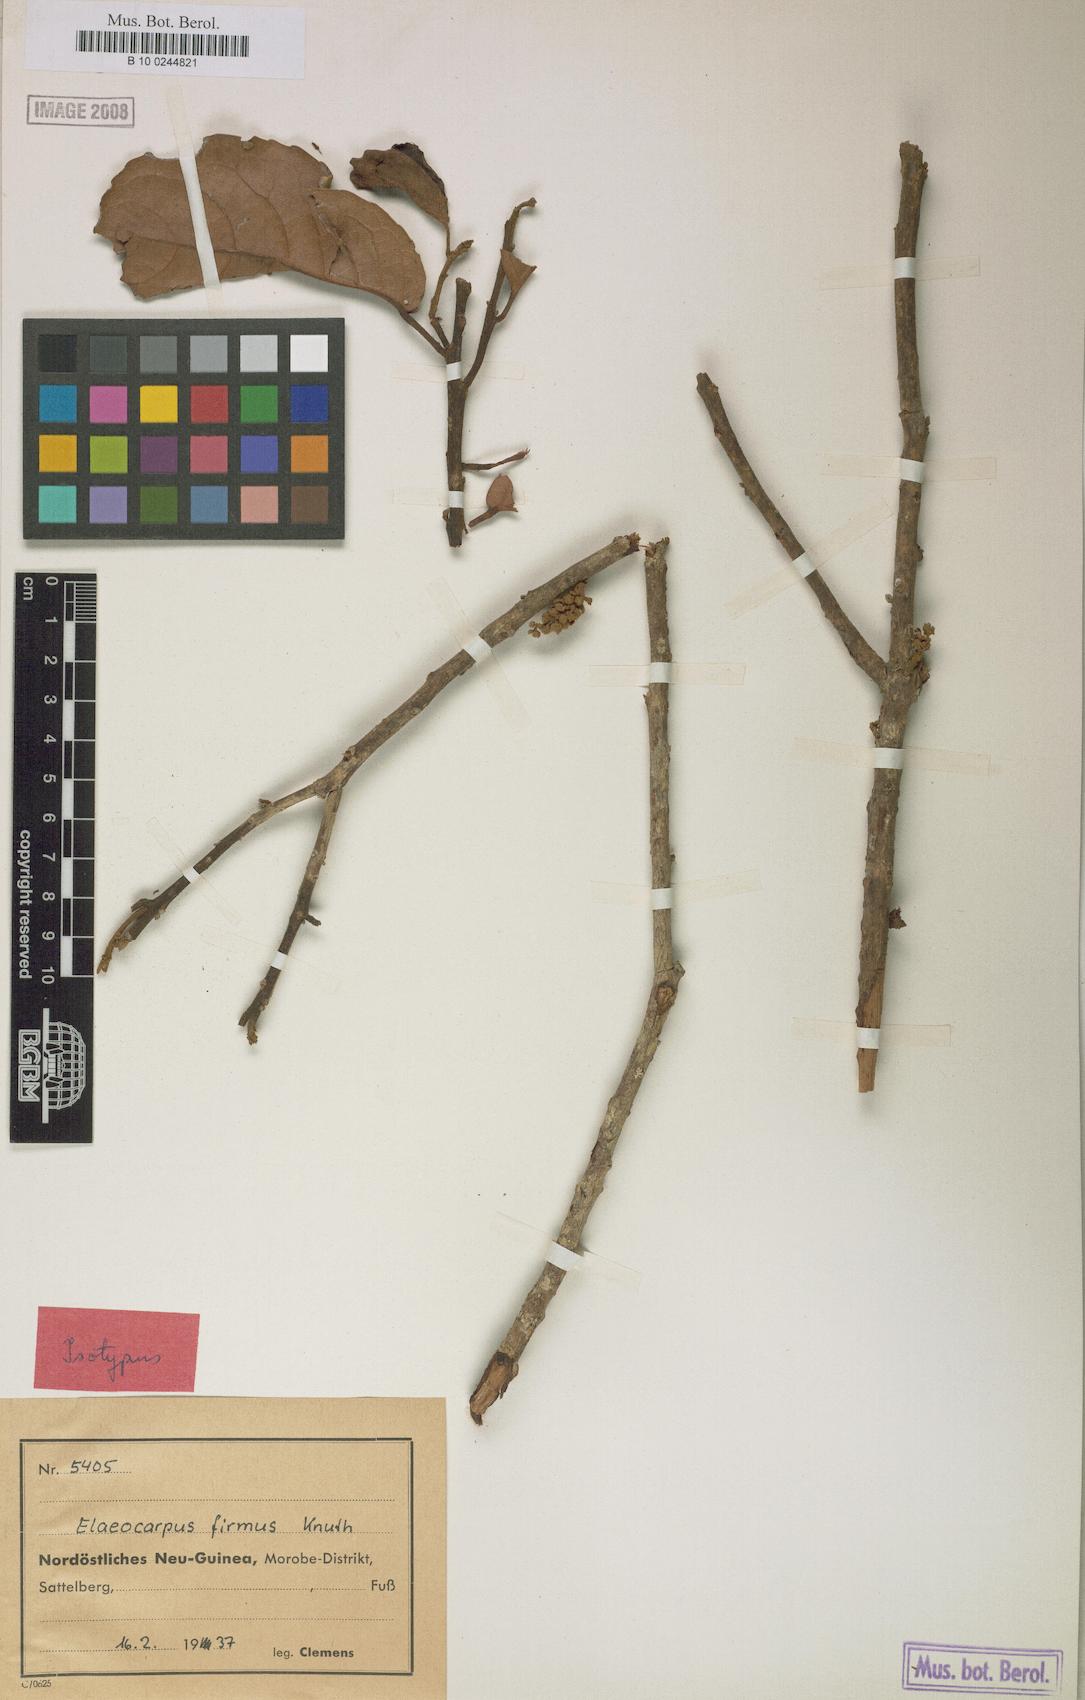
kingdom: Plantae
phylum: Tracheophyta
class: Magnoliopsida
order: Oxalidales
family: Elaeocarpaceae
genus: Elaeocarpus
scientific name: Elaeocarpus firmus
